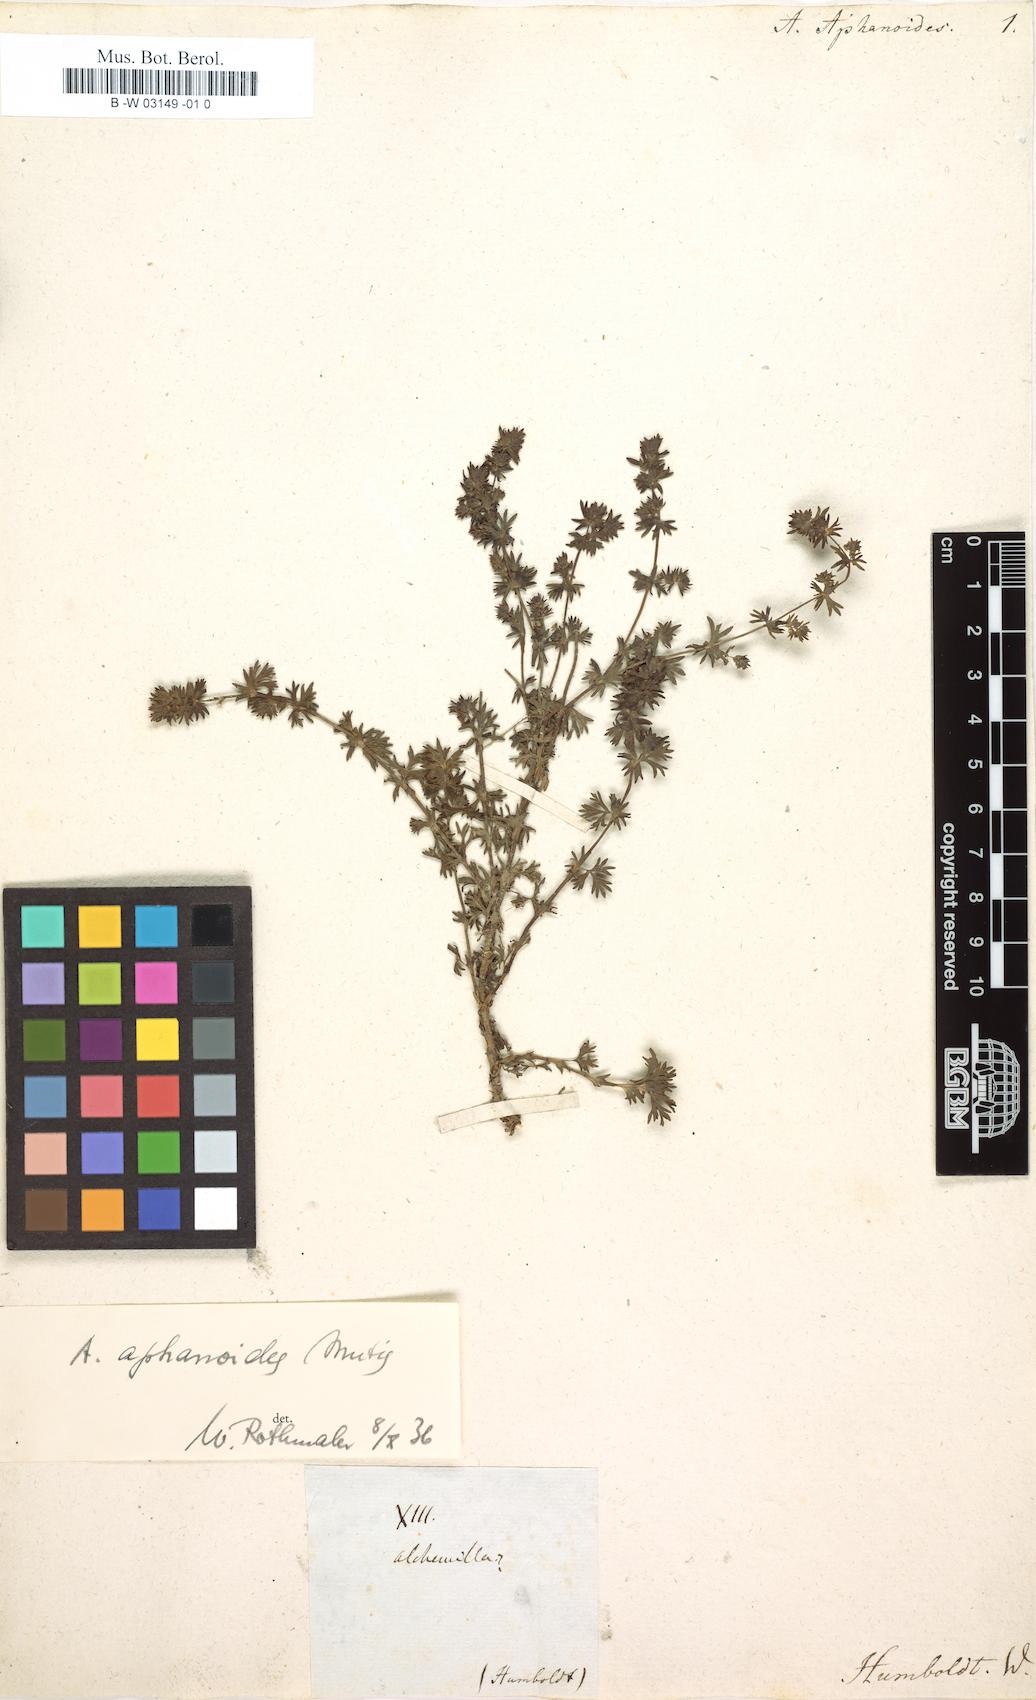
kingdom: Plantae
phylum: Tracheophyta
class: Magnoliopsida
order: Rosales
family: Rosaceae
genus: Lachemilla
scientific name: Lachemilla aphanoides
